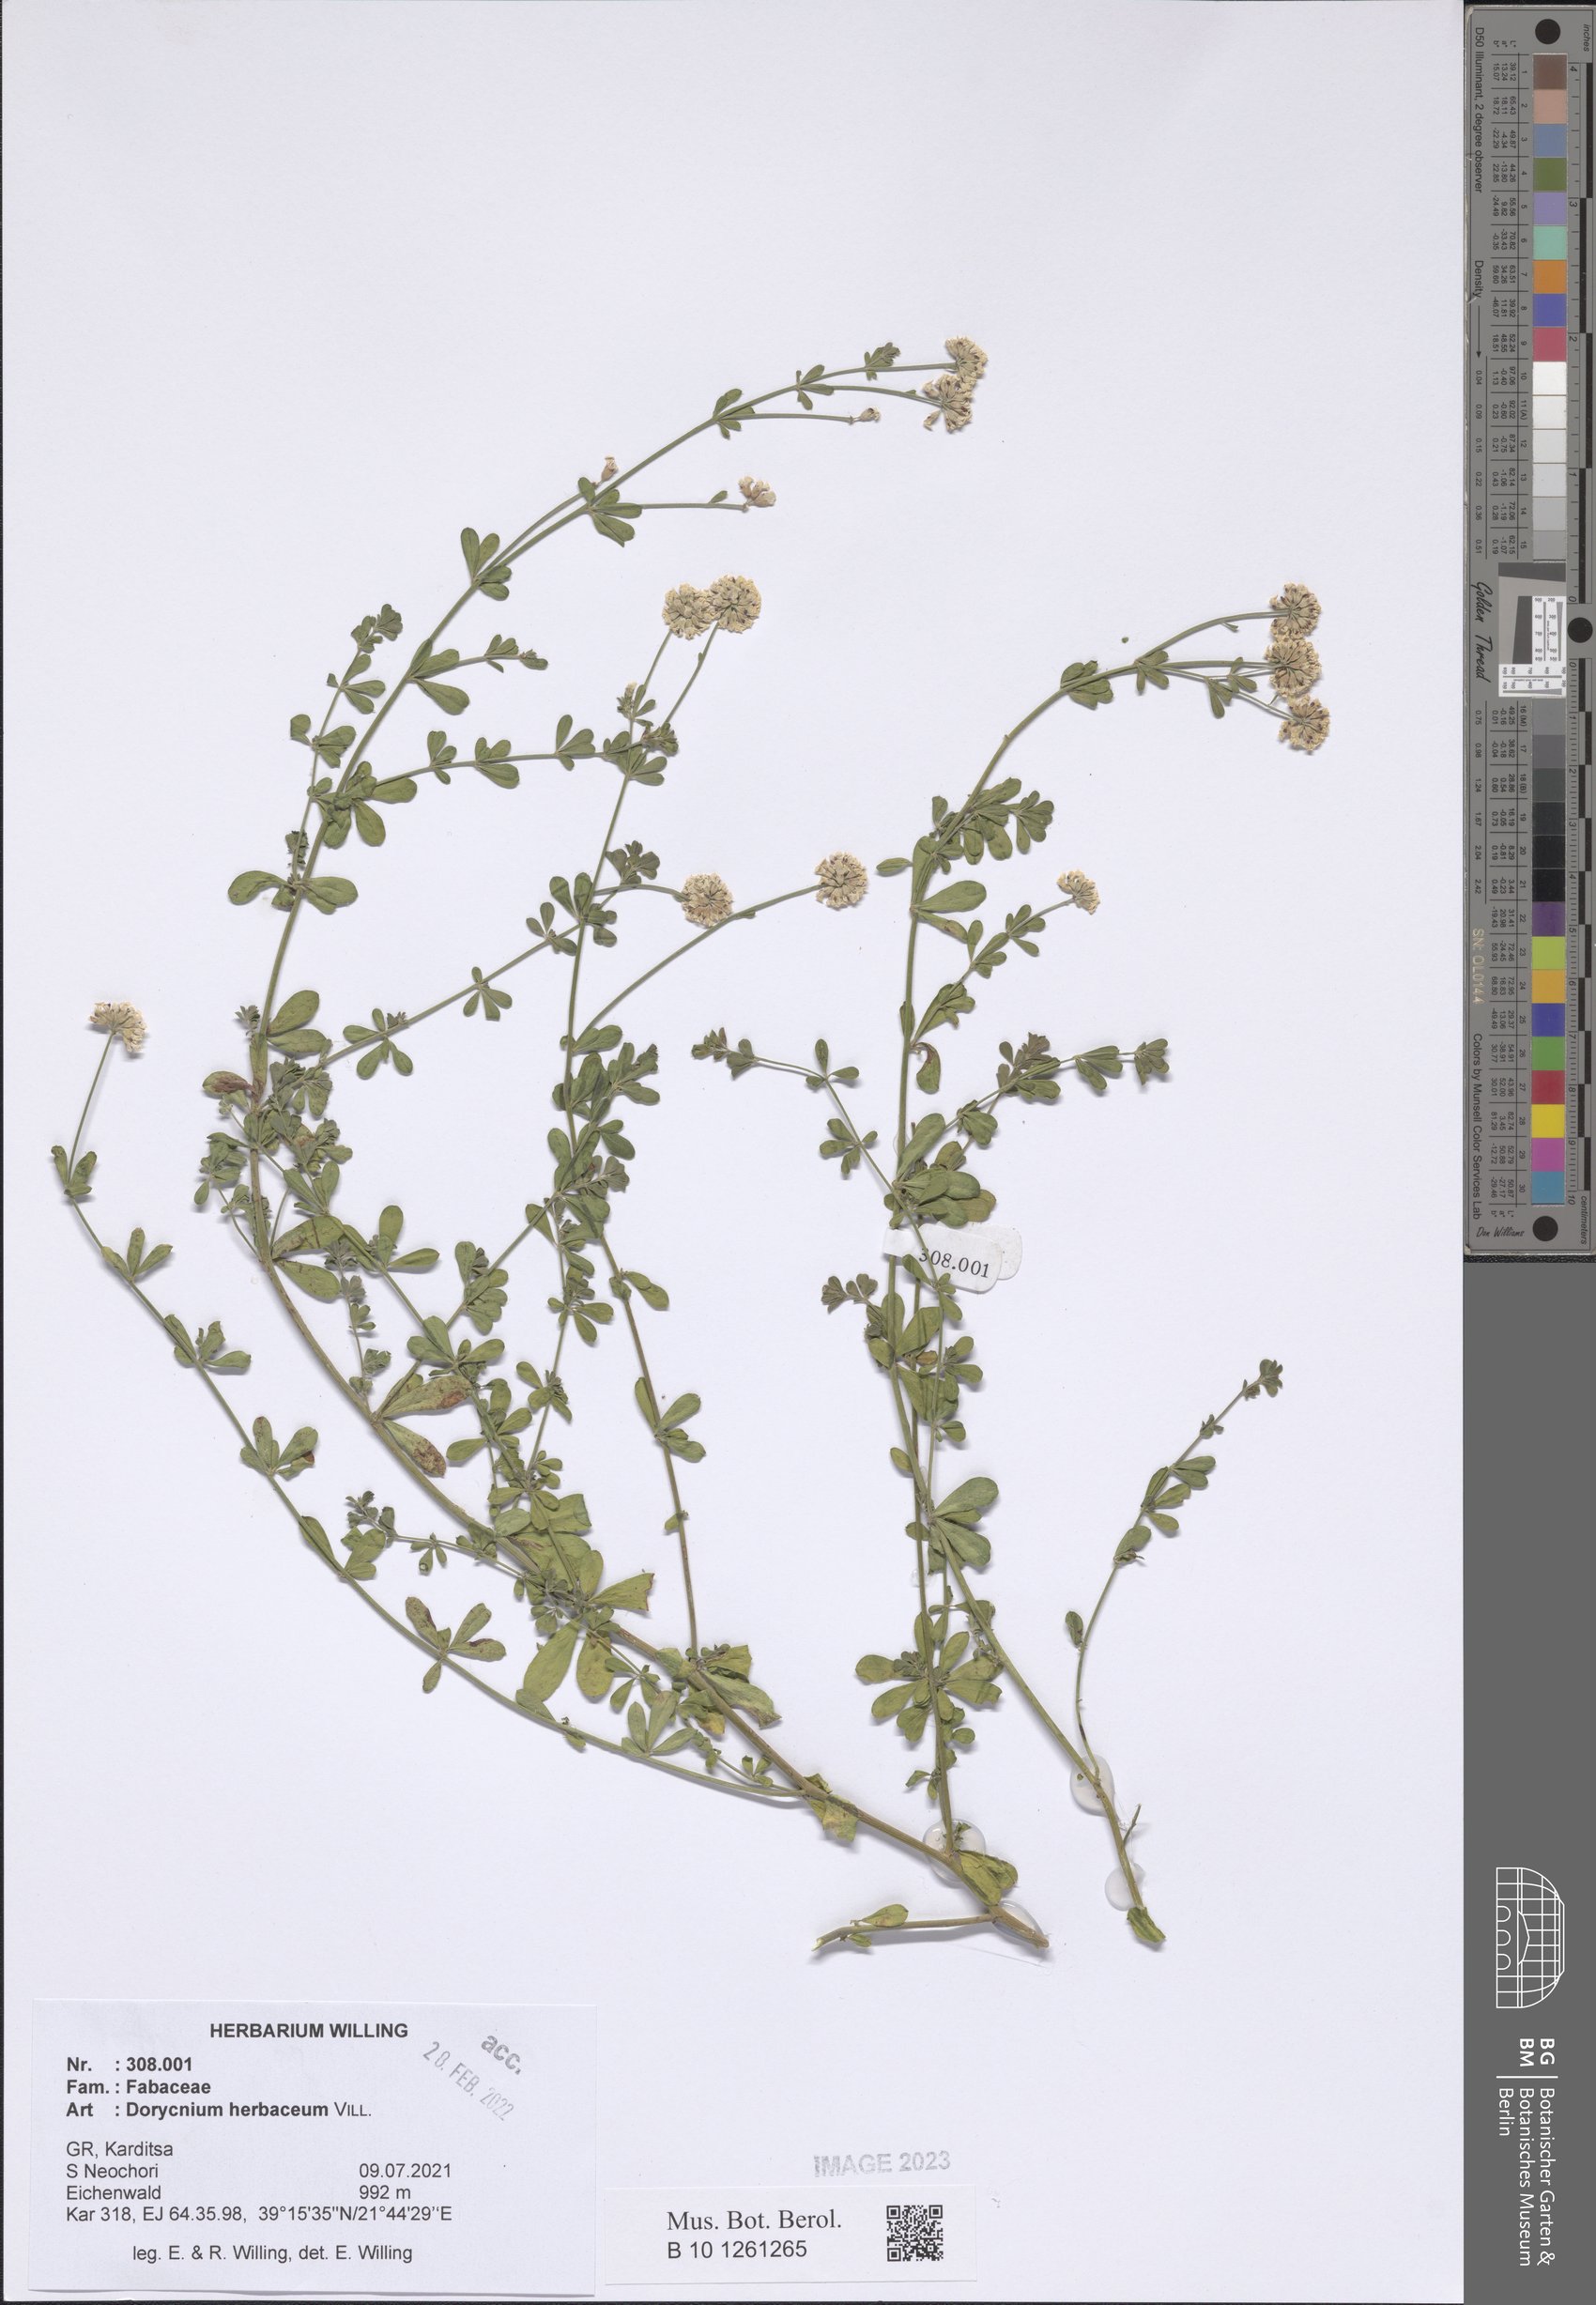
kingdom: Plantae
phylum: Tracheophyta
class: Magnoliopsida
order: Fabales
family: Fabaceae
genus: Lotus
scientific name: Lotus herbaceus
